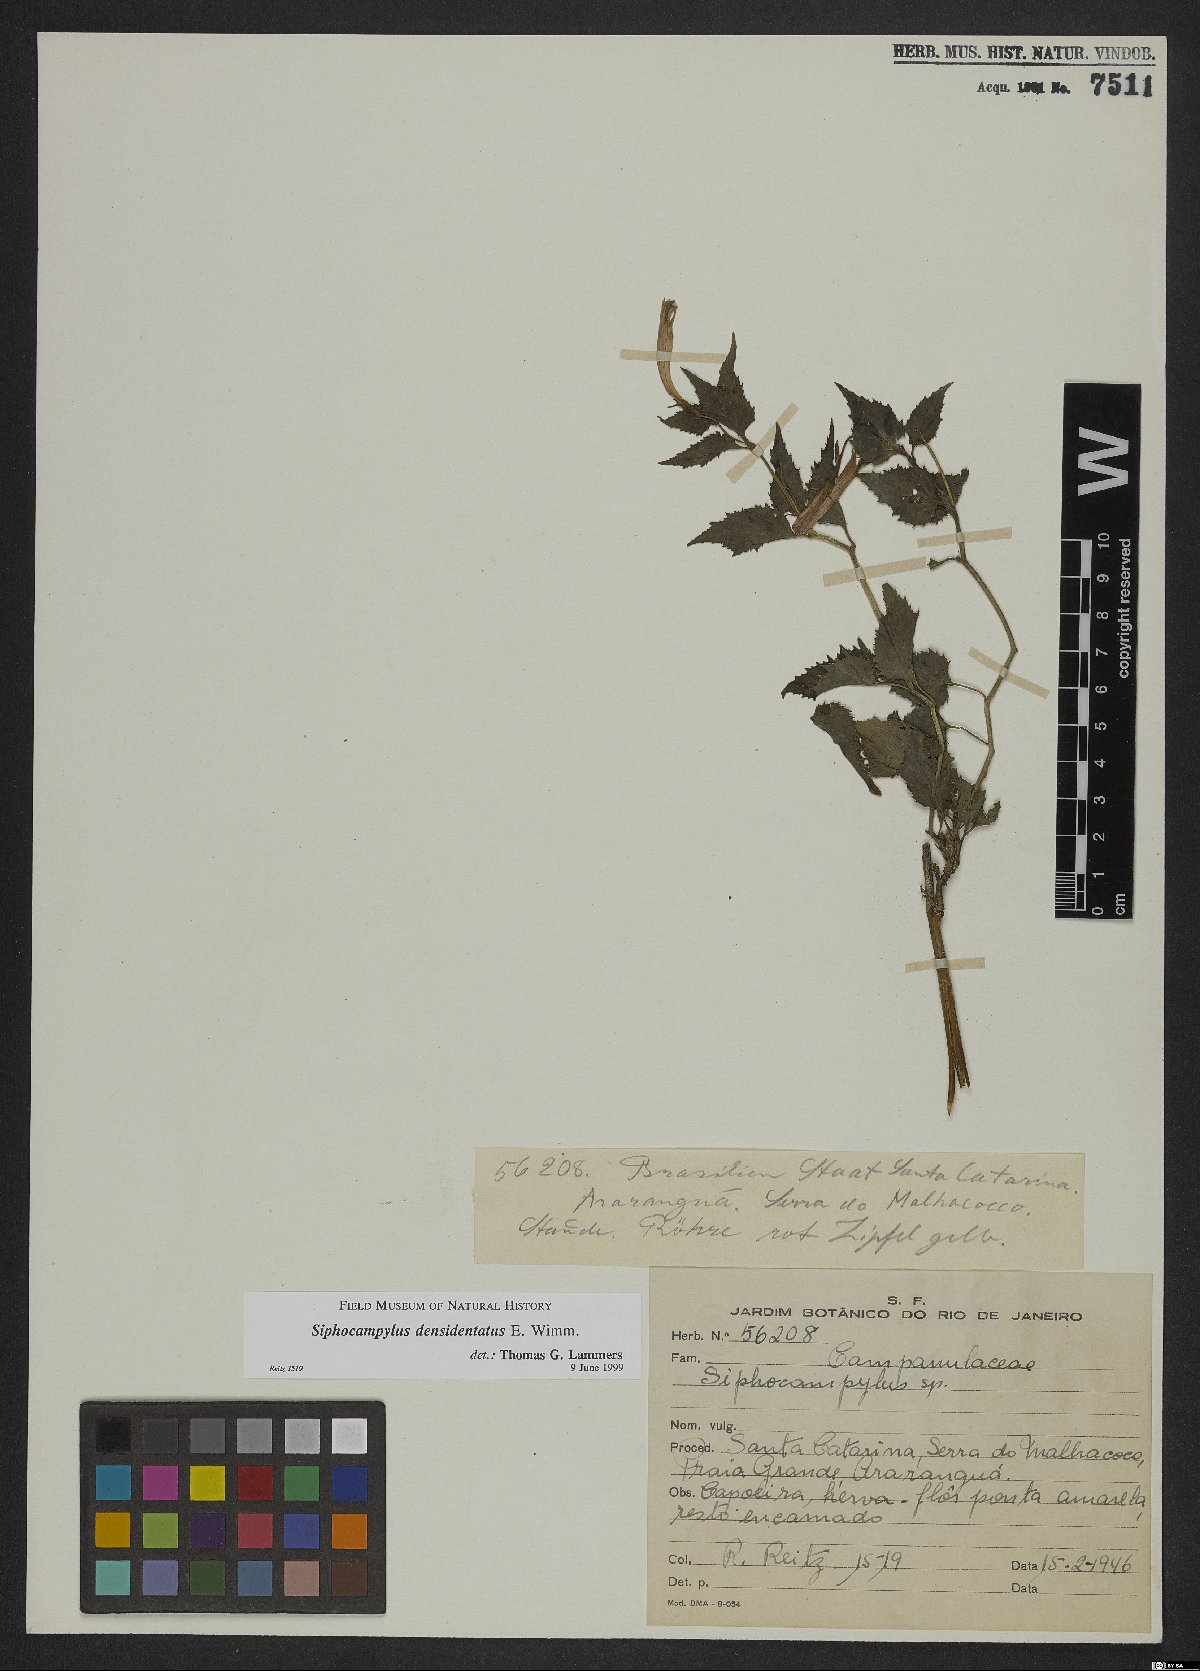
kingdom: Plantae
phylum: Tracheophyta
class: Magnoliopsida
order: Asterales
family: Campanulaceae
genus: Siphocampylus
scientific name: Siphocampylus densidentatus
